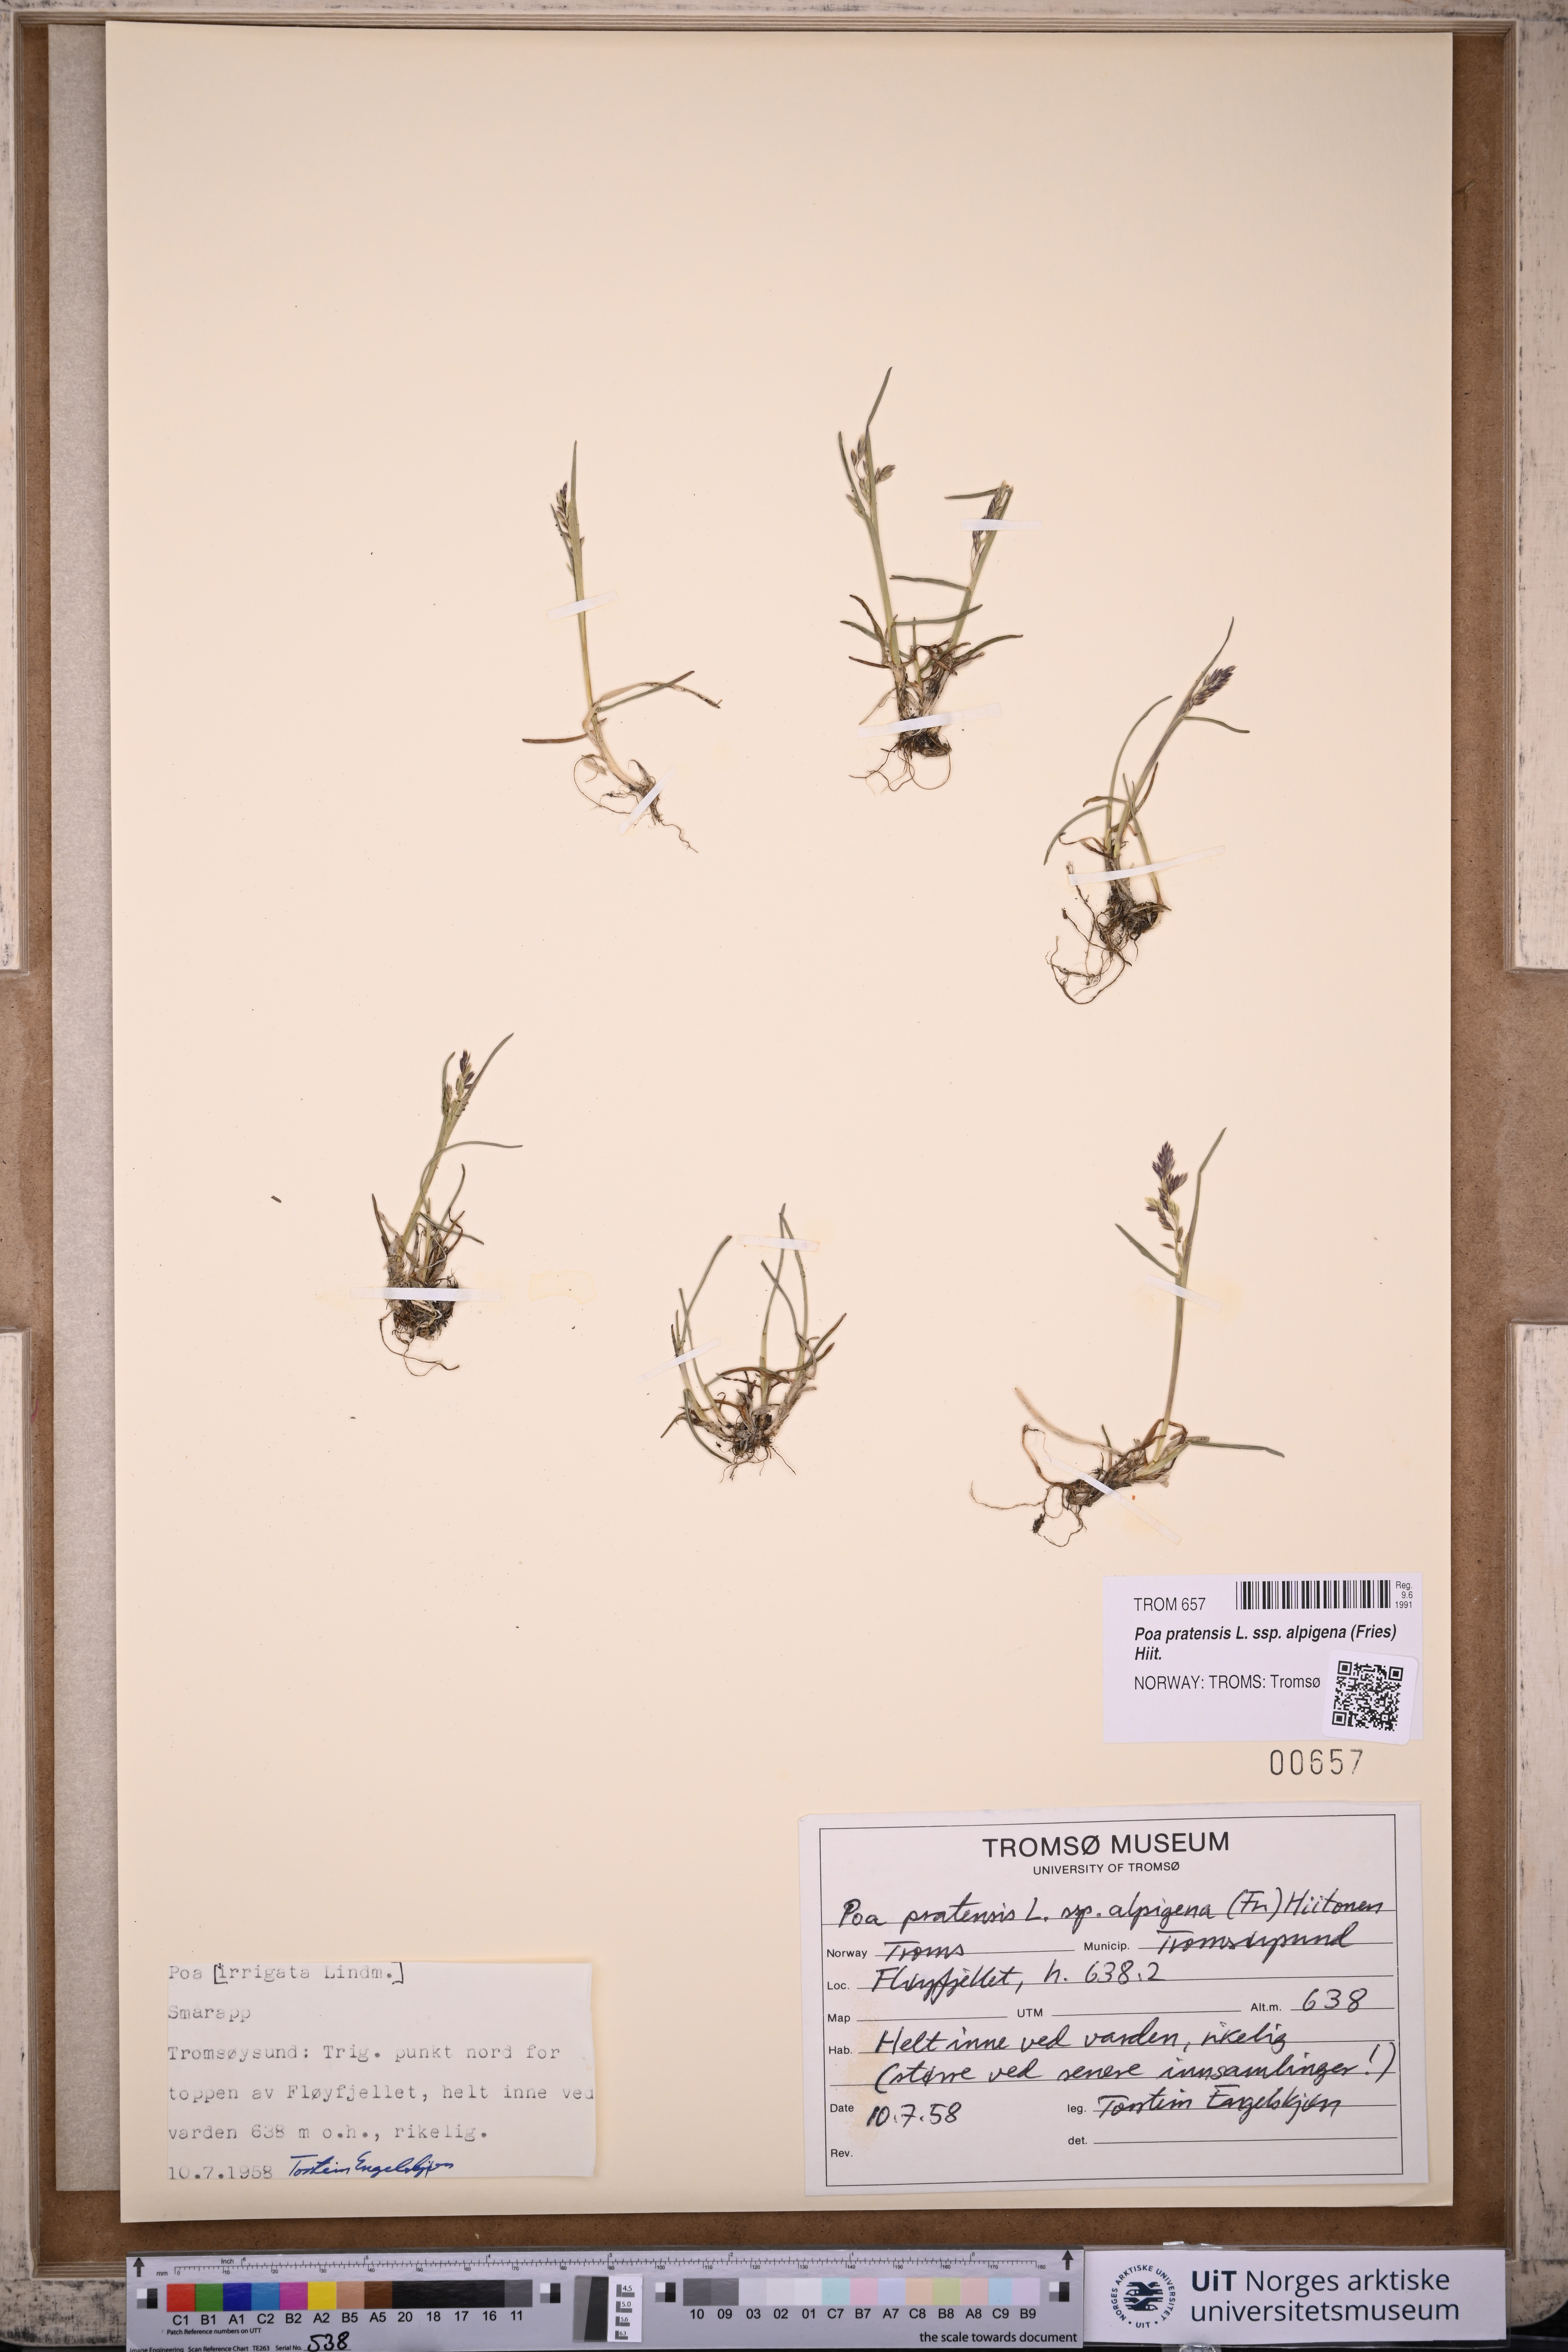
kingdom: Plantae
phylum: Tracheophyta
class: Liliopsida
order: Poales
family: Poaceae
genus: Poa
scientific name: Poa alpigena
